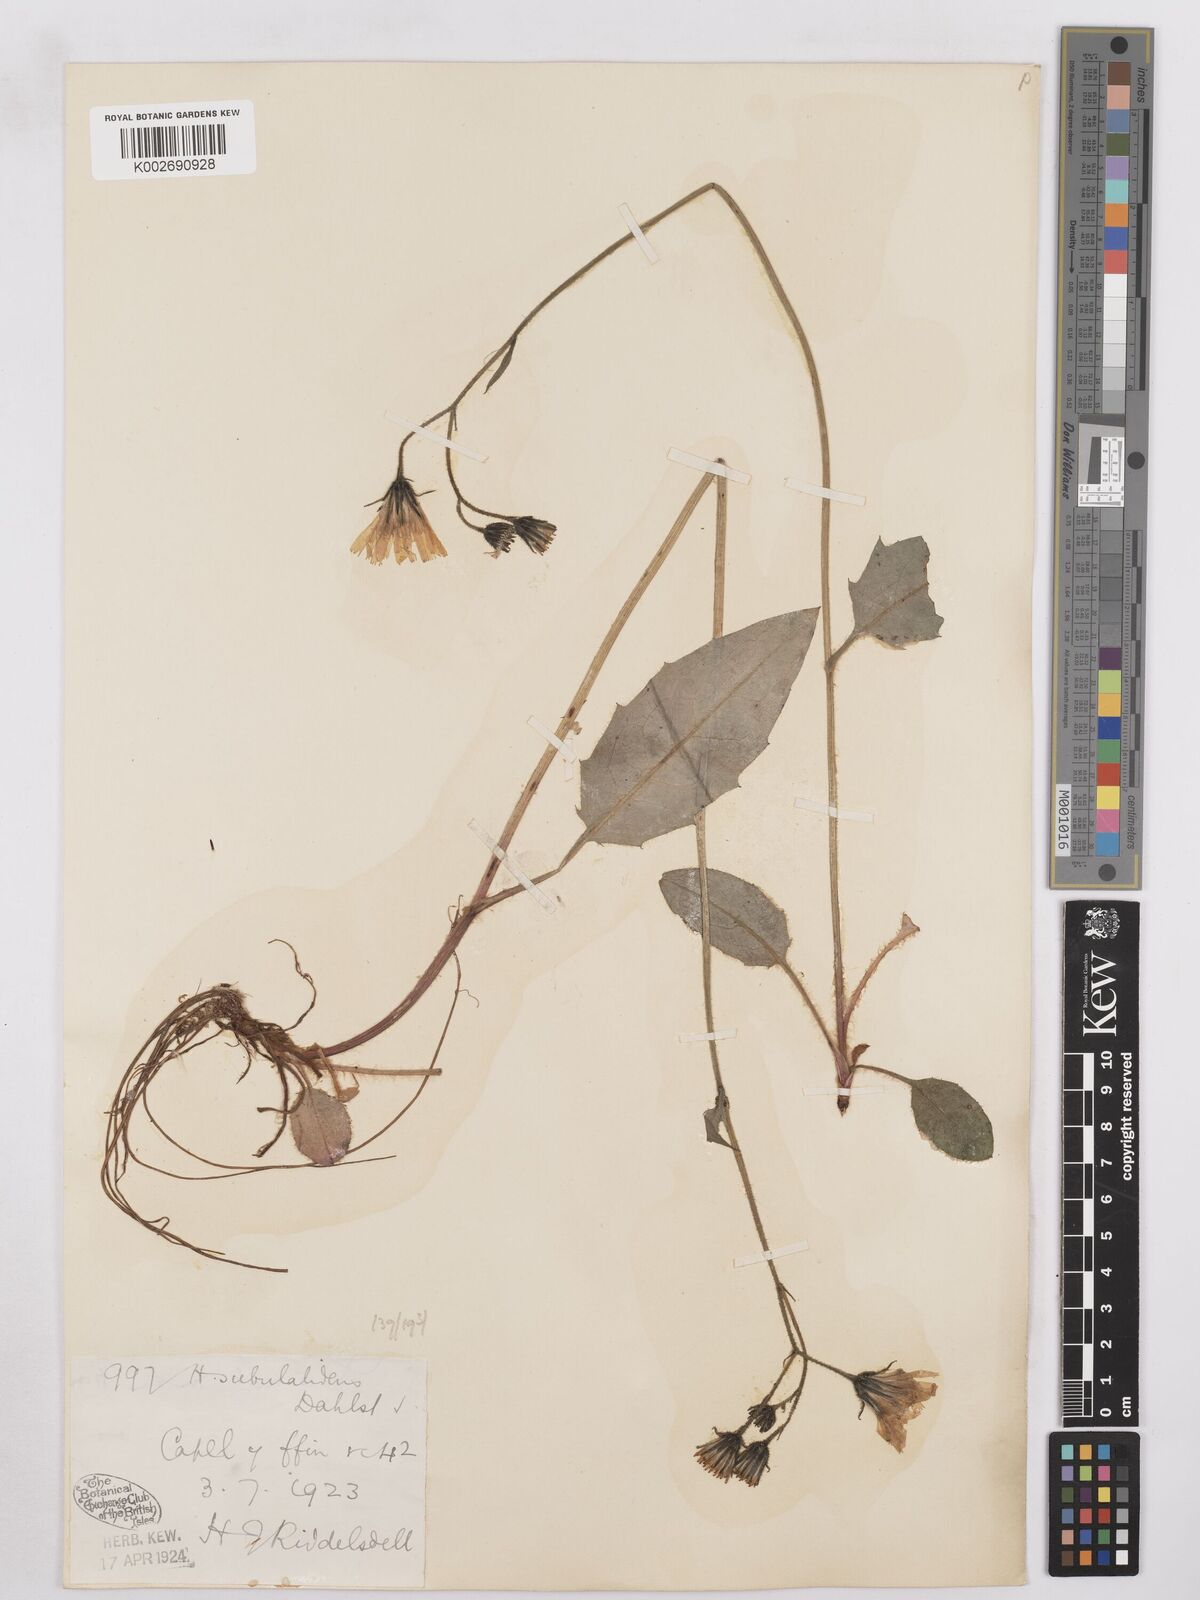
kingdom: Plantae
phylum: Tracheophyta
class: Magnoliopsida
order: Asterales
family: Asteraceae
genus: Hieracium
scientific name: Hieracium cuneifrons
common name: Wedge-leaved hawkweed
